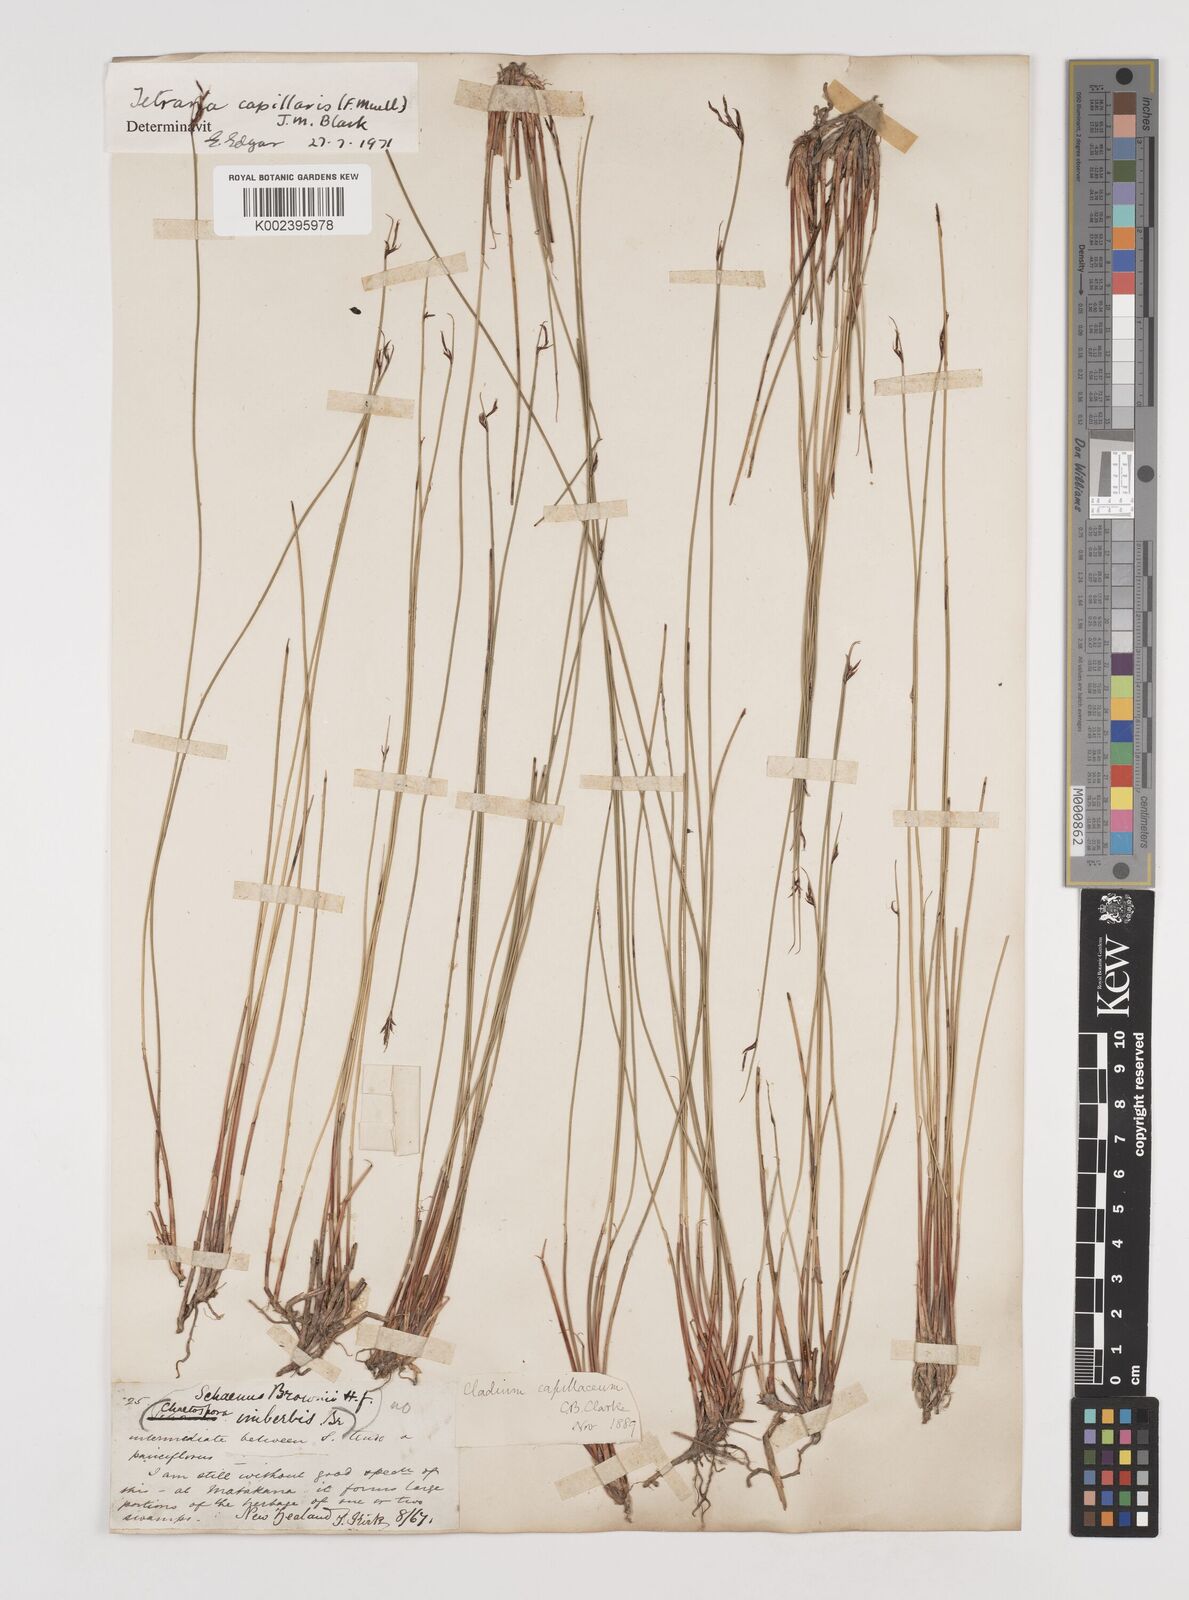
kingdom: Plantae
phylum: Tracheophyta
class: Liliopsida
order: Poales
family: Cyperaceae
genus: Tetraria
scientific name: Tetraria capillaris
